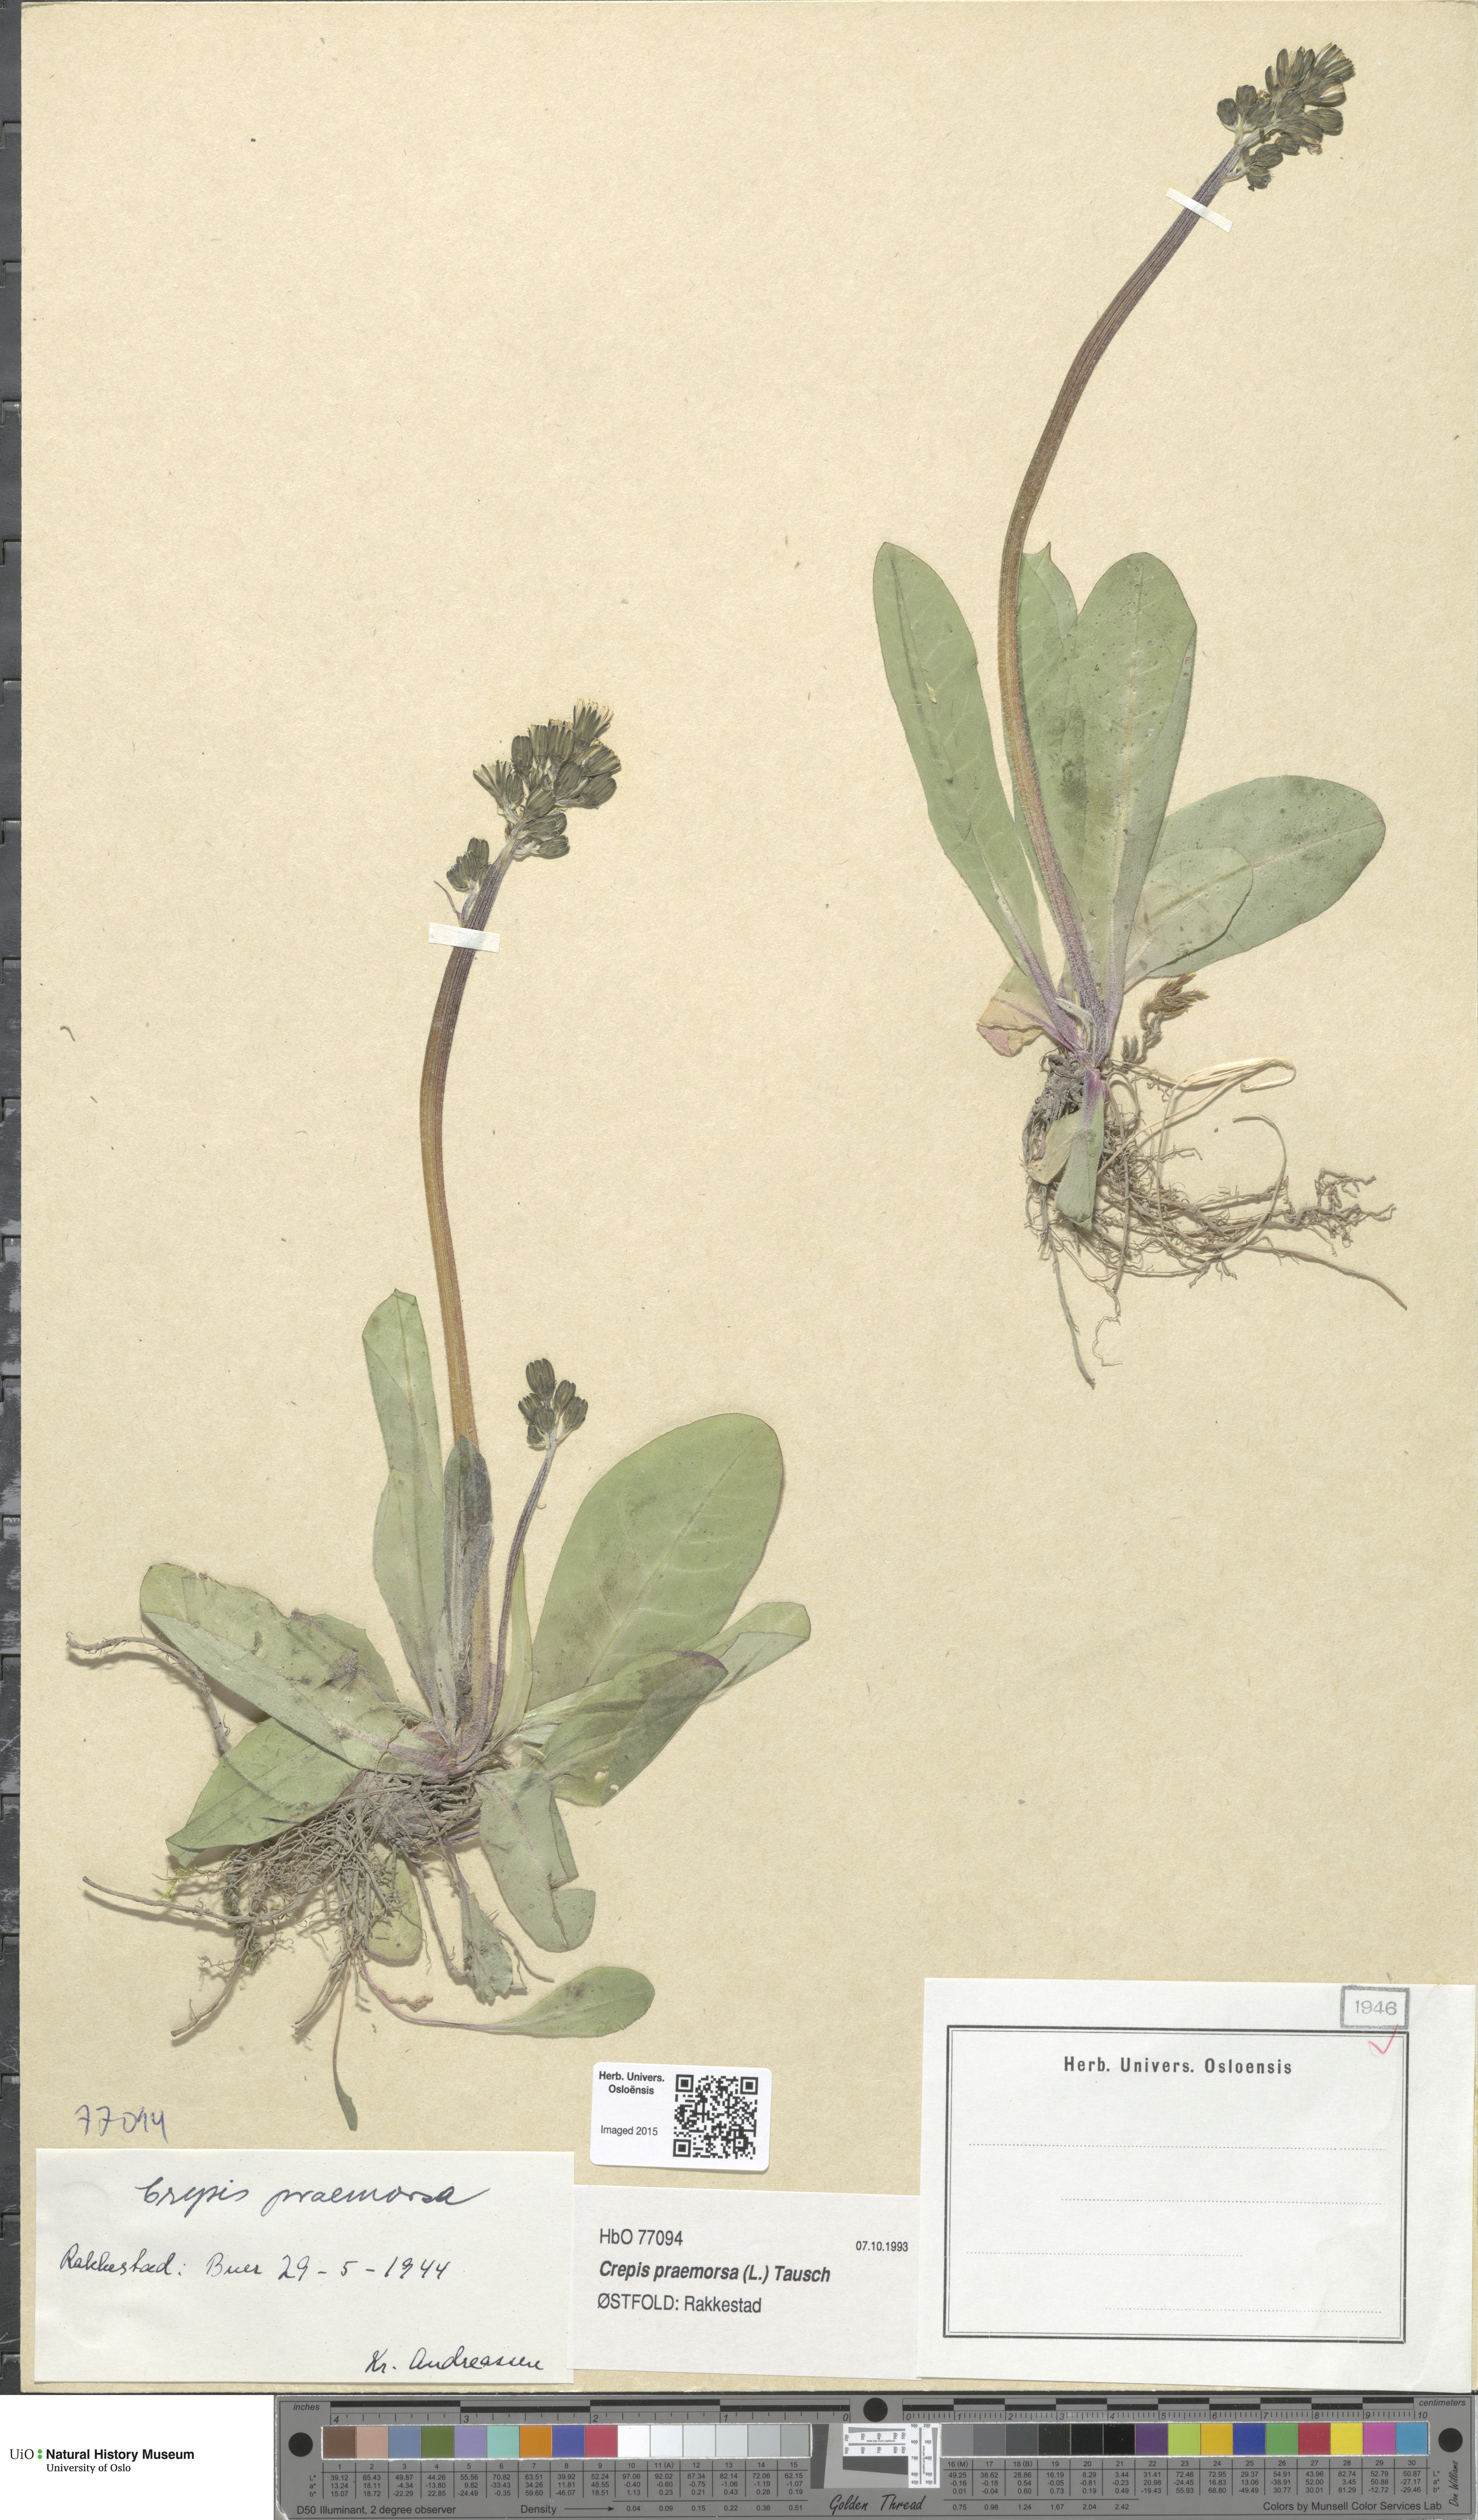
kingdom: Plantae
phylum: Tracheophyta
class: Magnoliopsida
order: Asterales
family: Asteraceae
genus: Crepis
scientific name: Crepis praemorsa
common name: Leafless hawk's-beard
